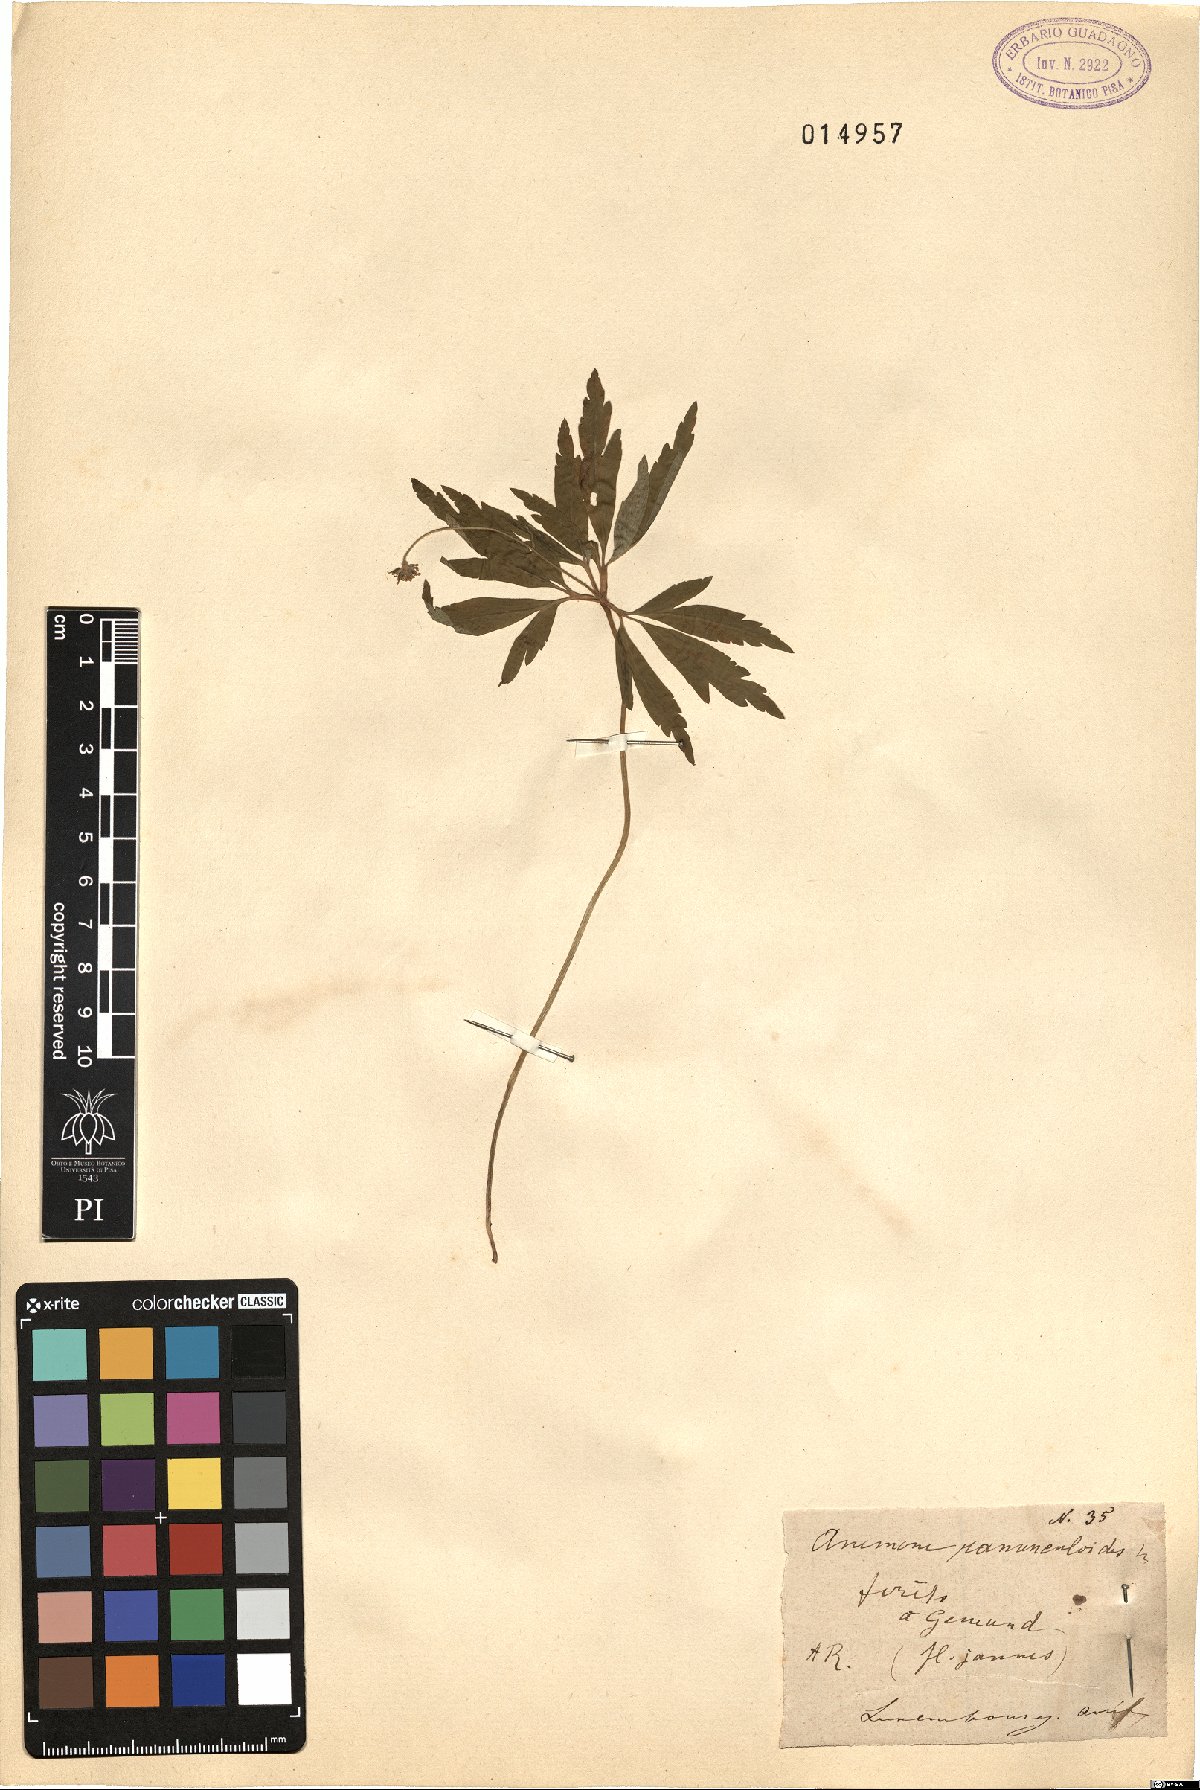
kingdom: Plantae
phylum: Tracheophyta
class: Magnoliopsida
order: Ranunculales
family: Ranunculaceae
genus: Anemone
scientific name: Anemone ranunculoides
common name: Yellow anemone
